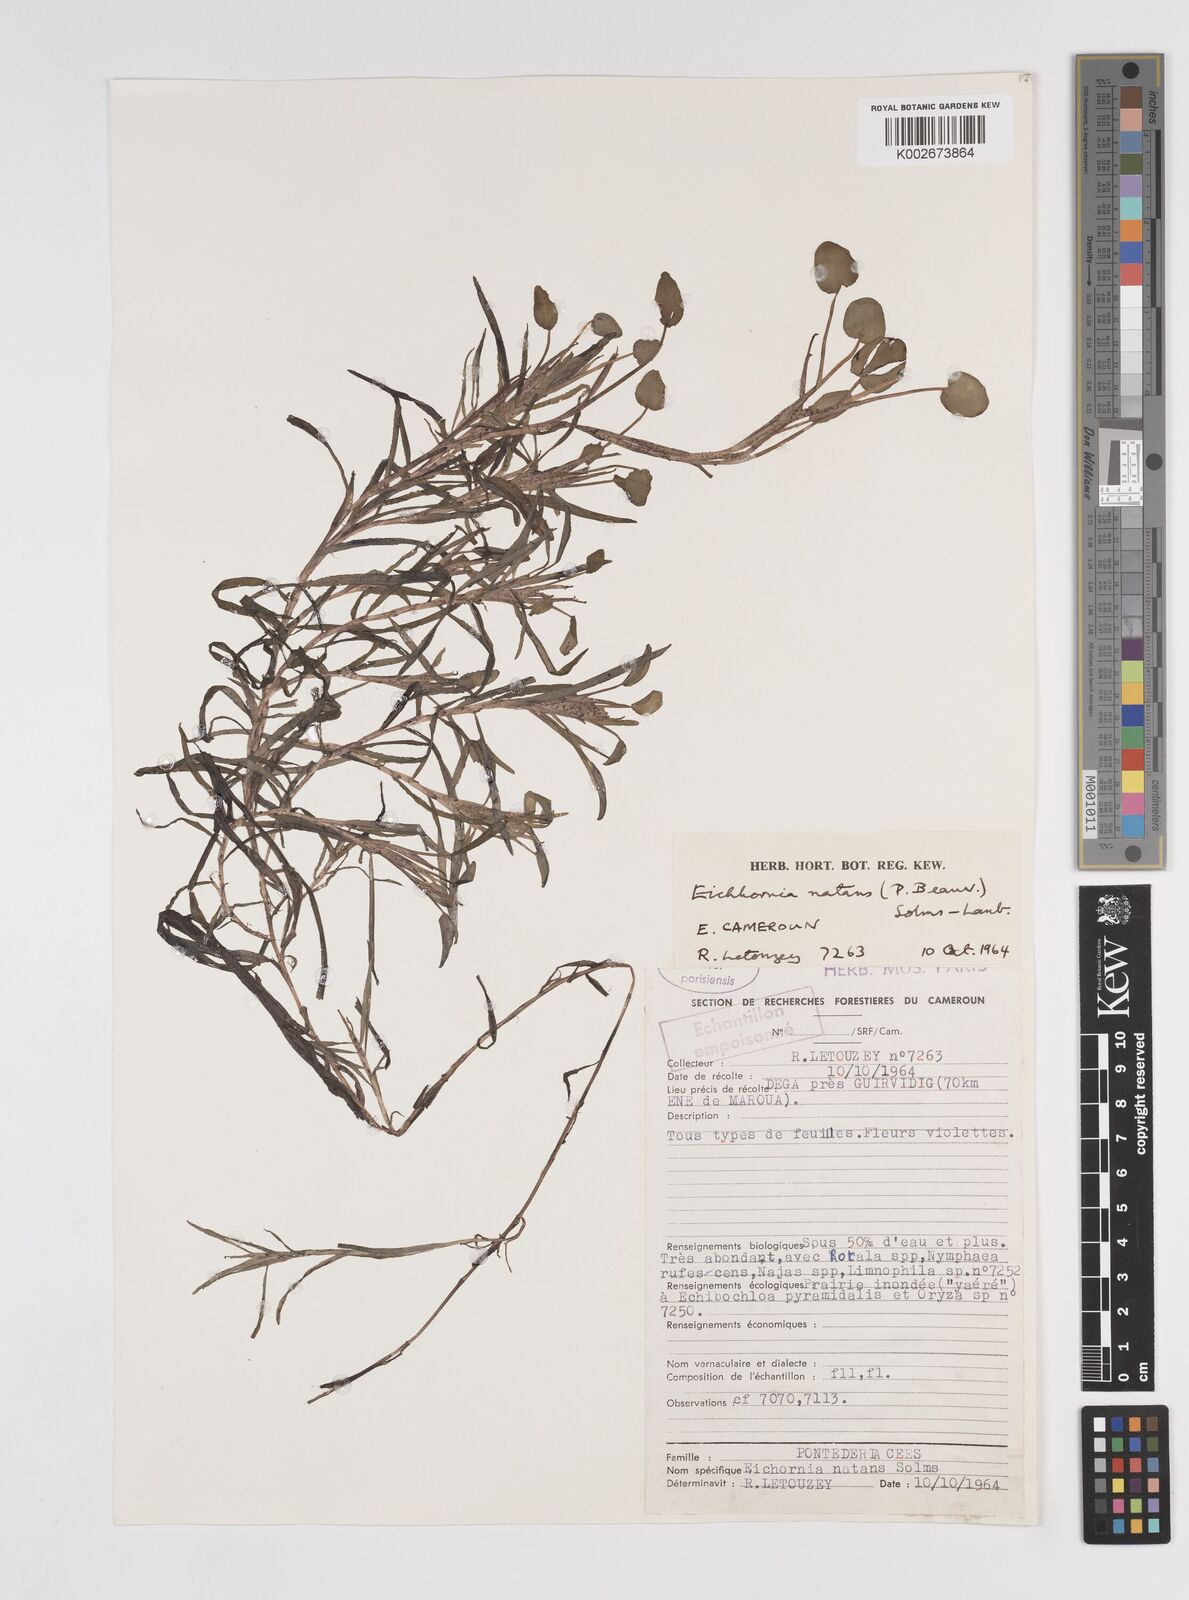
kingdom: Plantae
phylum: Tracheophyta
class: Liliopsida
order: Commelinales
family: Pontederiaceae
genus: Pontederia
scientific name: Pontederia natans
